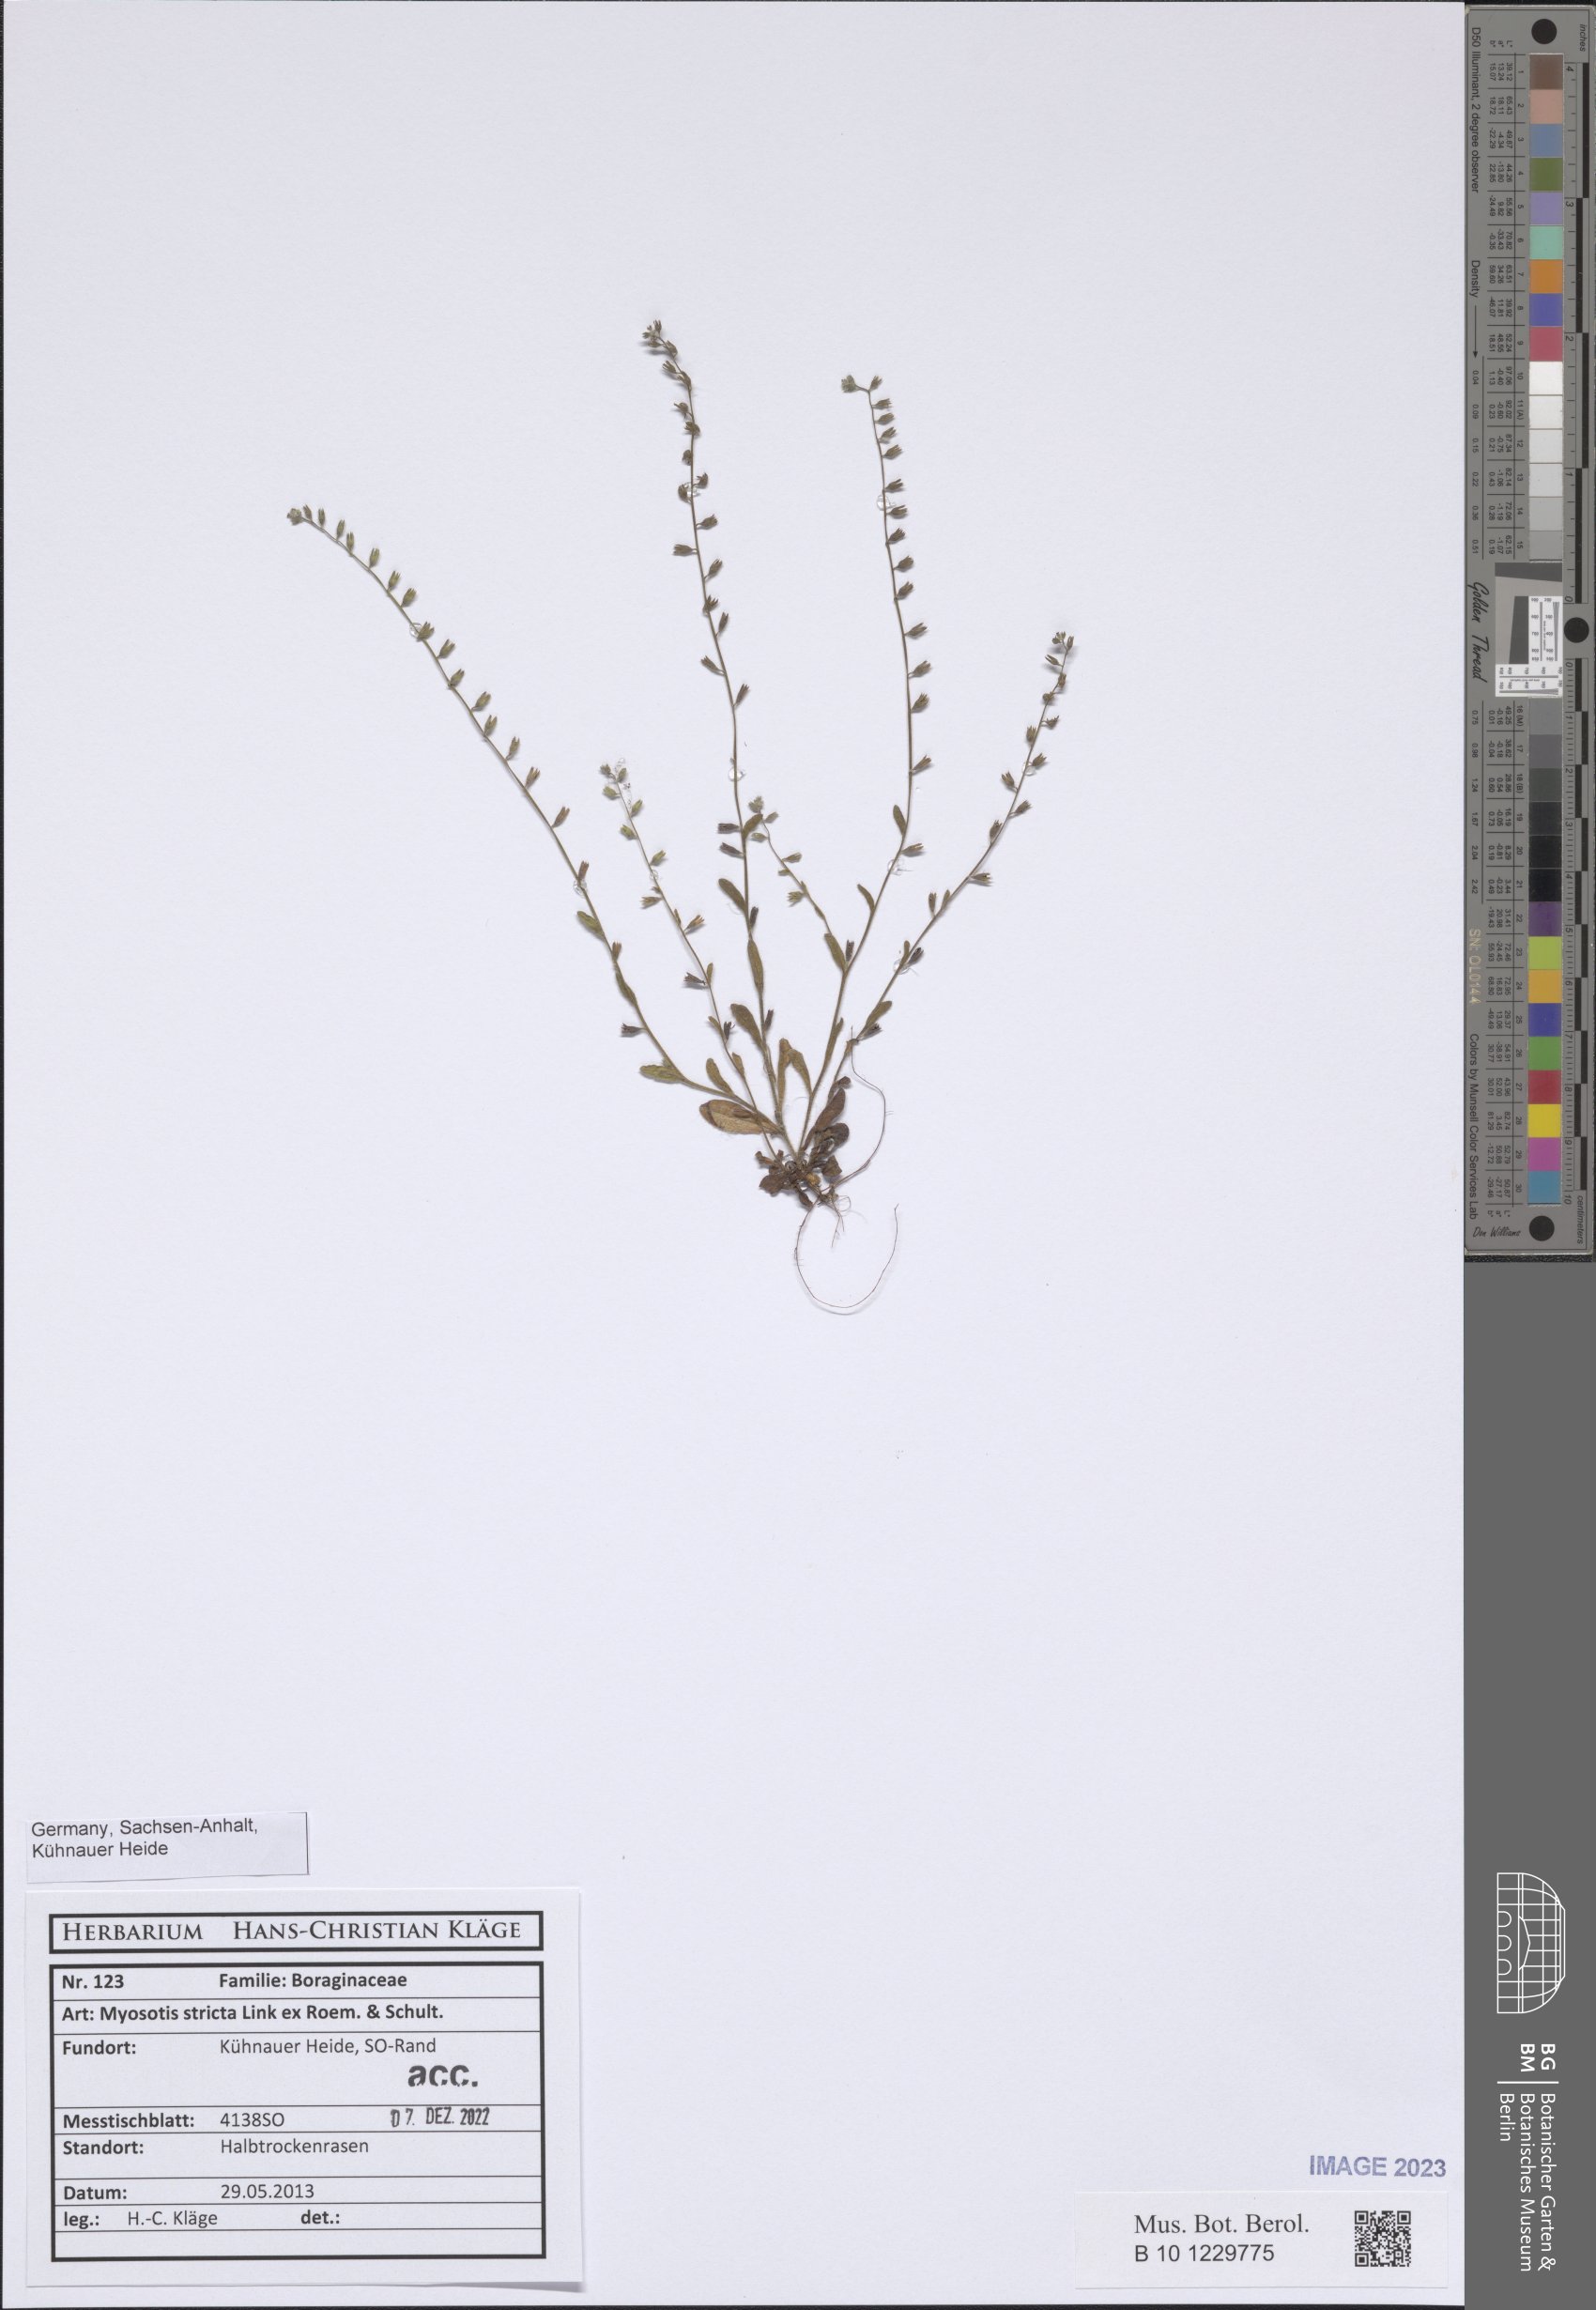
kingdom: Plantae
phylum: Tracheophyta
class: Magnoliopsida
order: Boraginales
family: Boraginaceae
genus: Myosotis
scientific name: Myosotis stricta
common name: Strict forget-me-not
